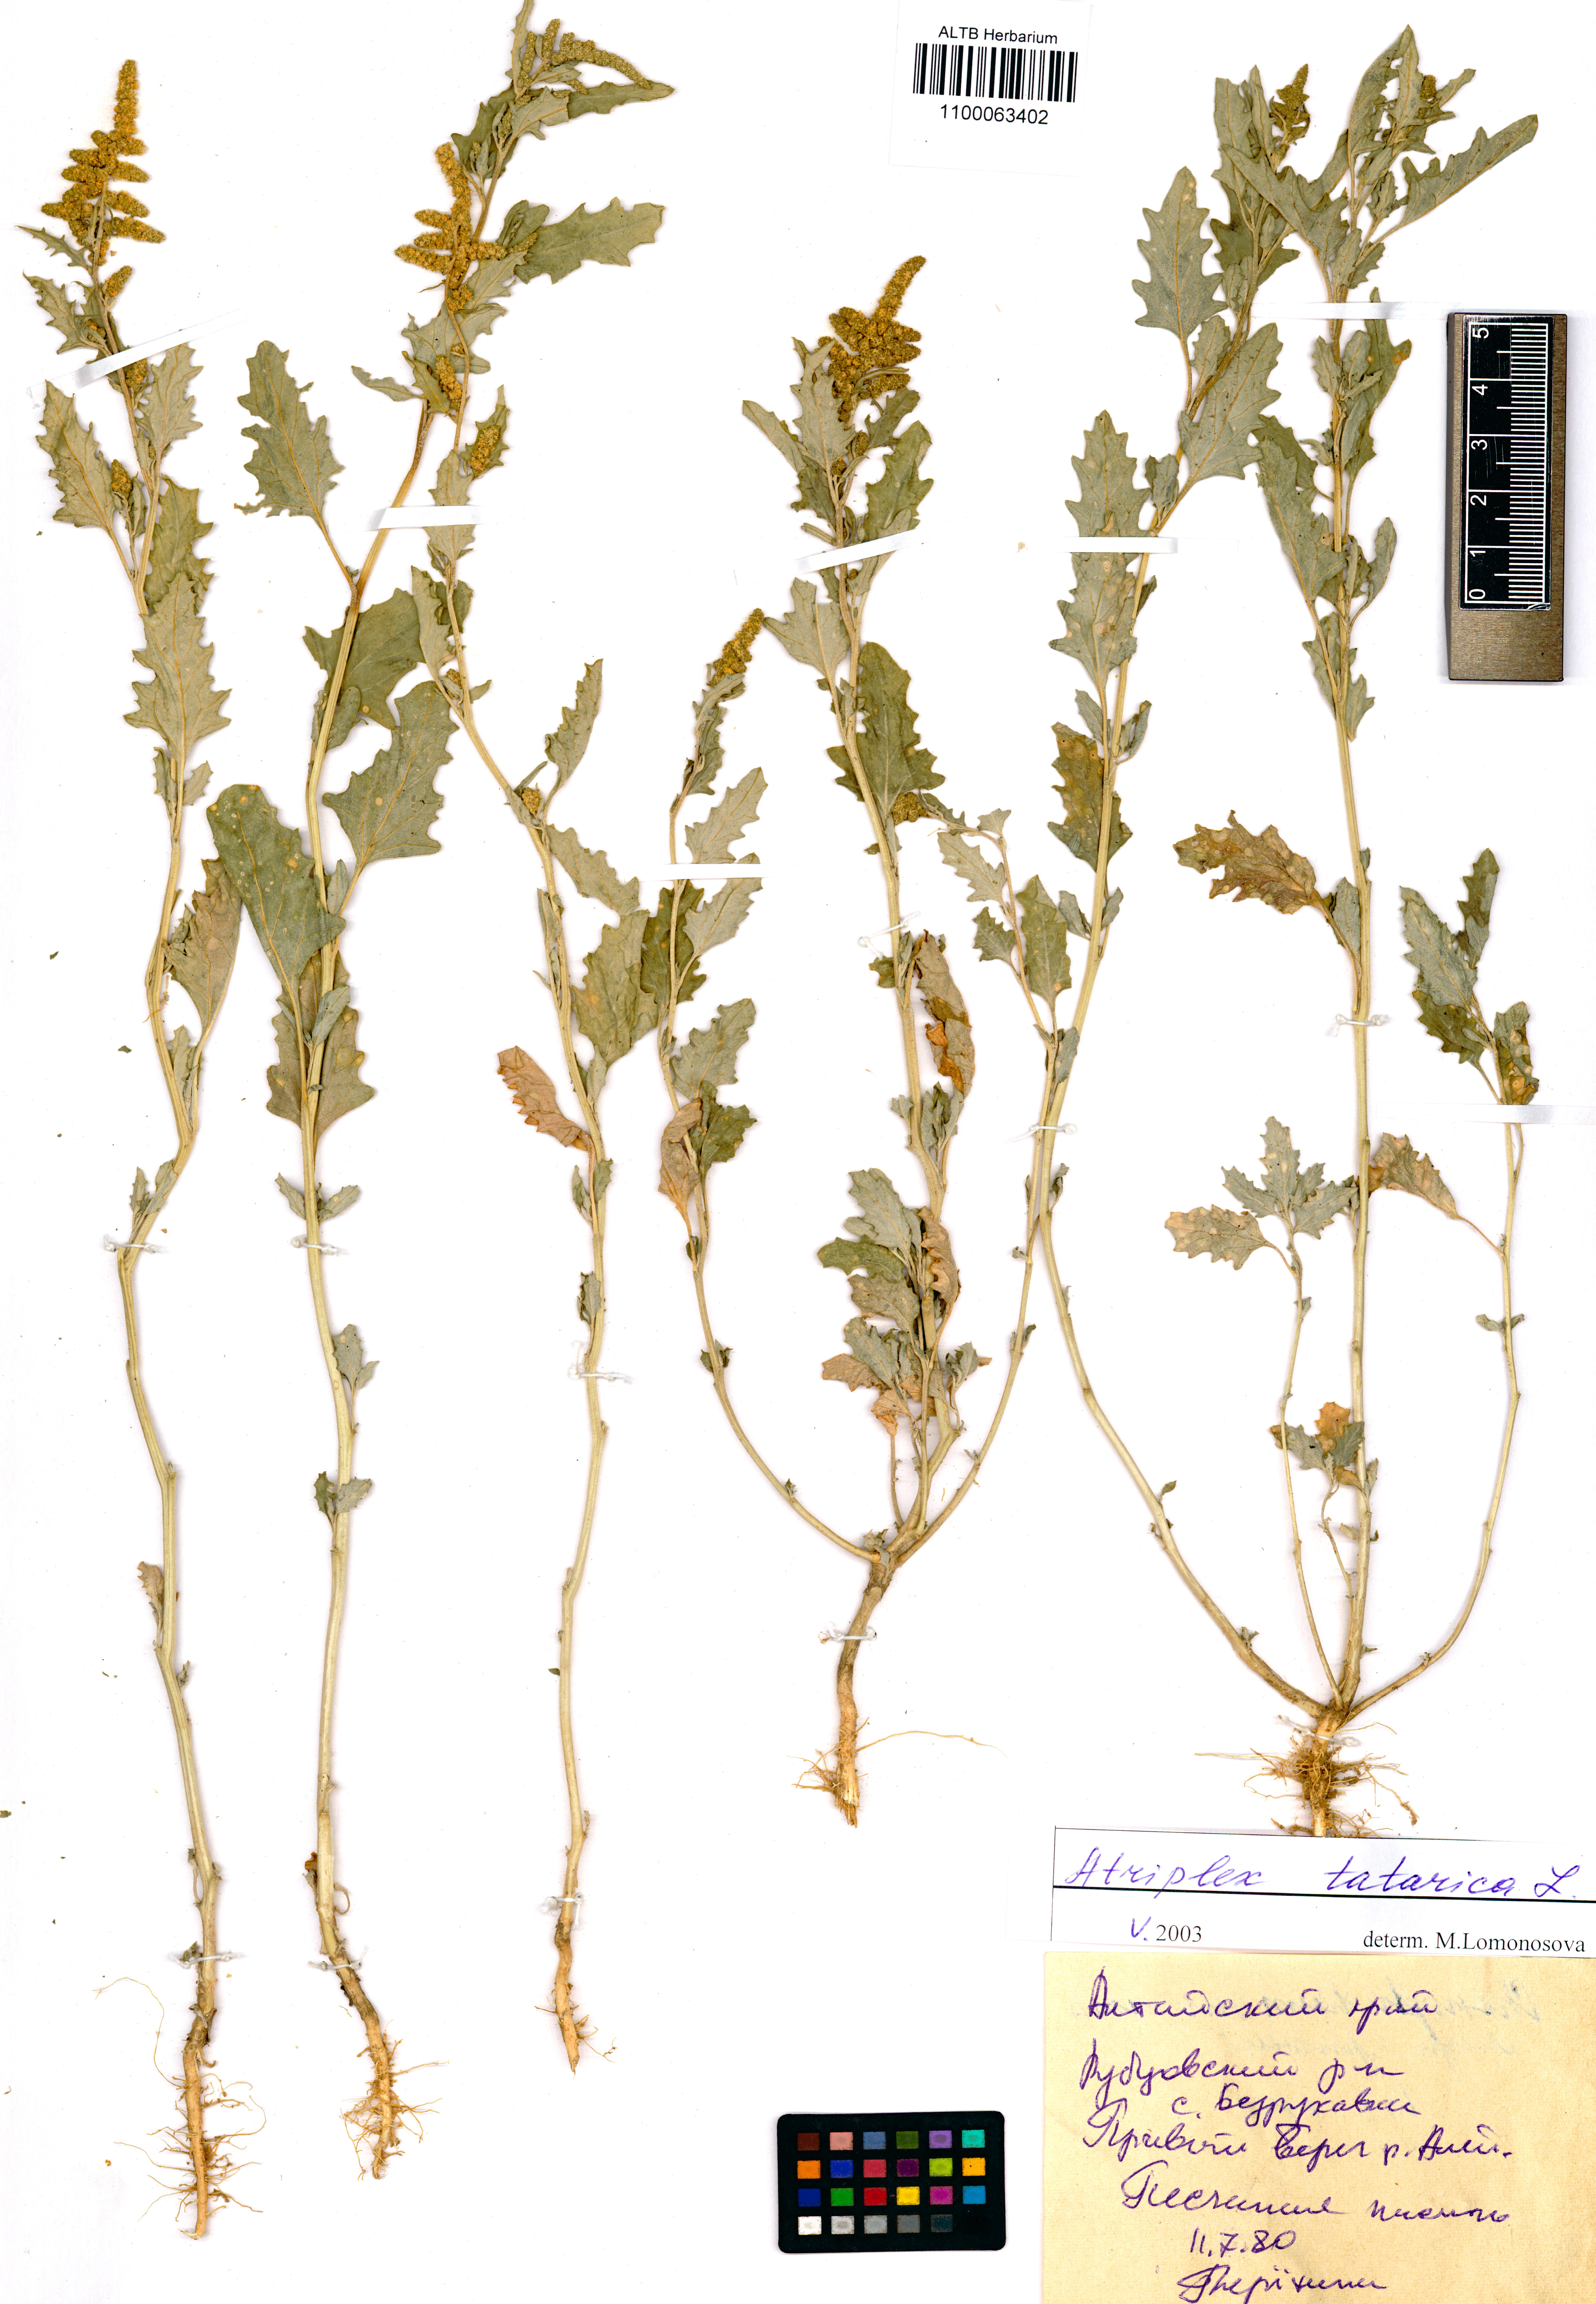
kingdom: Plantae
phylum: Tracheophyta
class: Magnoliopsida
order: Caryophyllales
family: Amaranthaceae
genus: Atriplex
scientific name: Atriplex tatarica
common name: Tatarian orache
